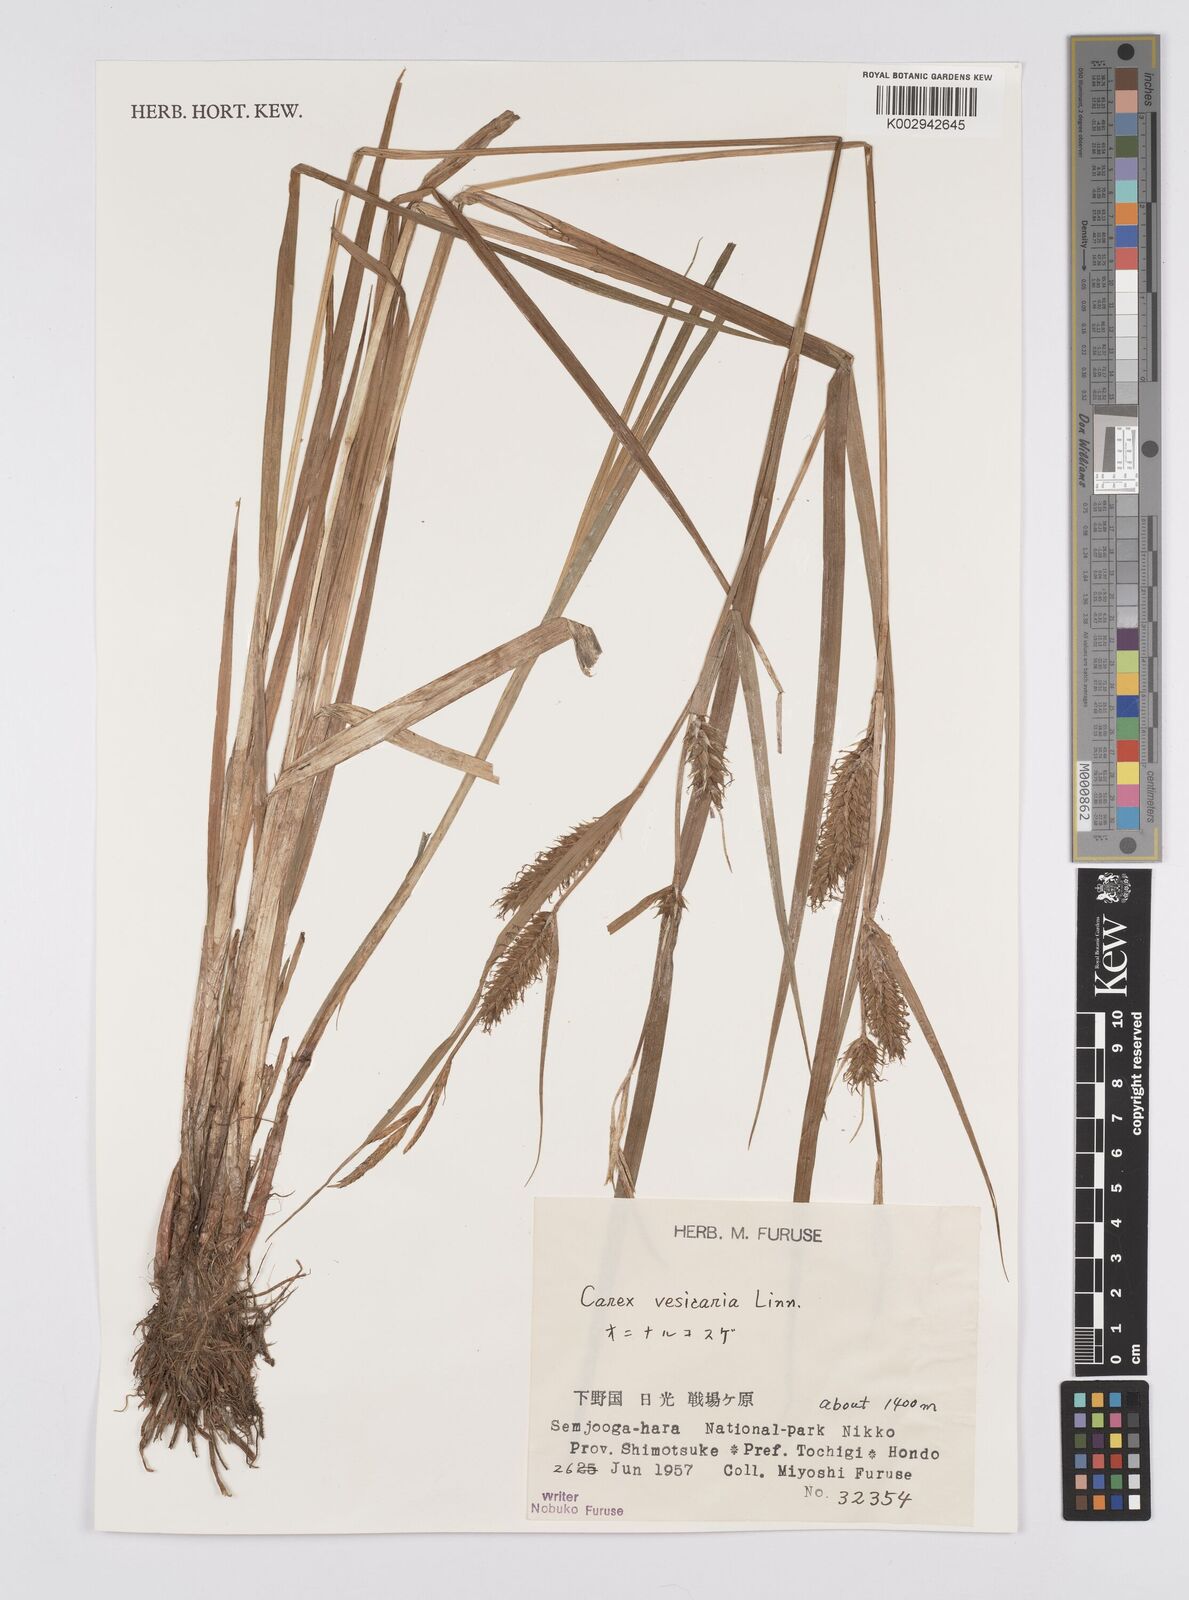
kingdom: Plantae
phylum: Tracheophyta
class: Liliopsida
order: Poales
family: Cyperaceae
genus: Carex
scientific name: Carex vesicaria
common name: Bladder-sedge
